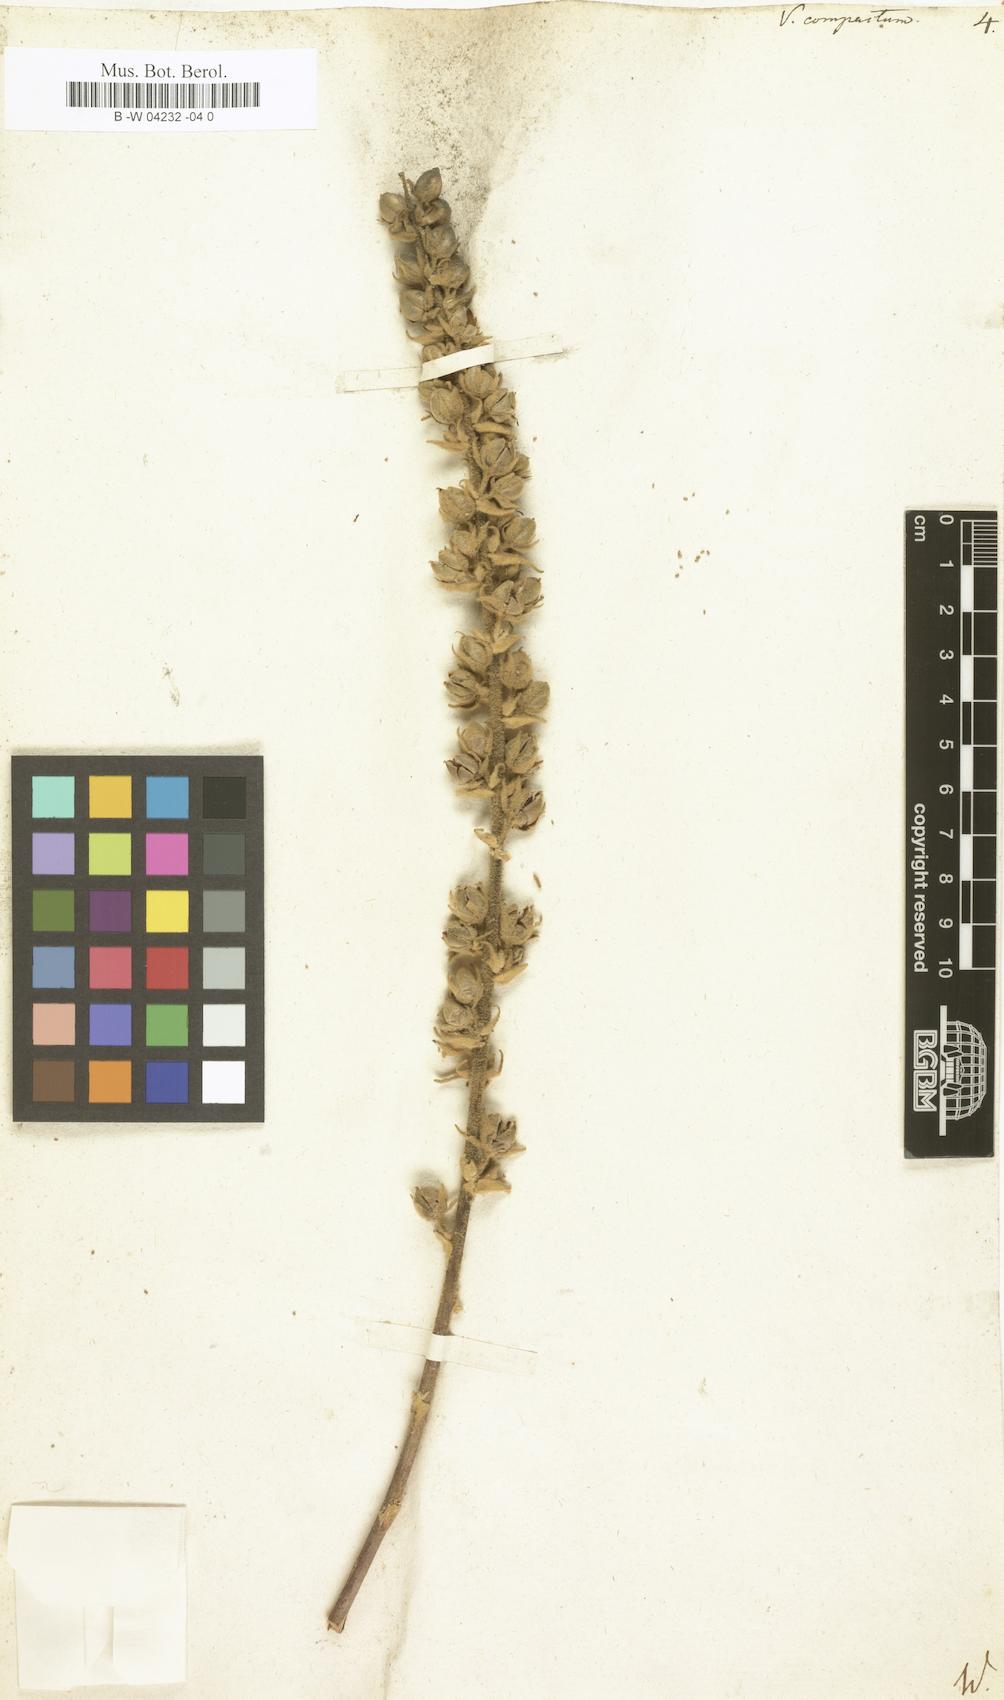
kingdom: Plantae
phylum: Tracheophyta
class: Magnoliopsida
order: Lamiales
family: Scrophulariaceae
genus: Verbascum
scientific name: Verbascum
